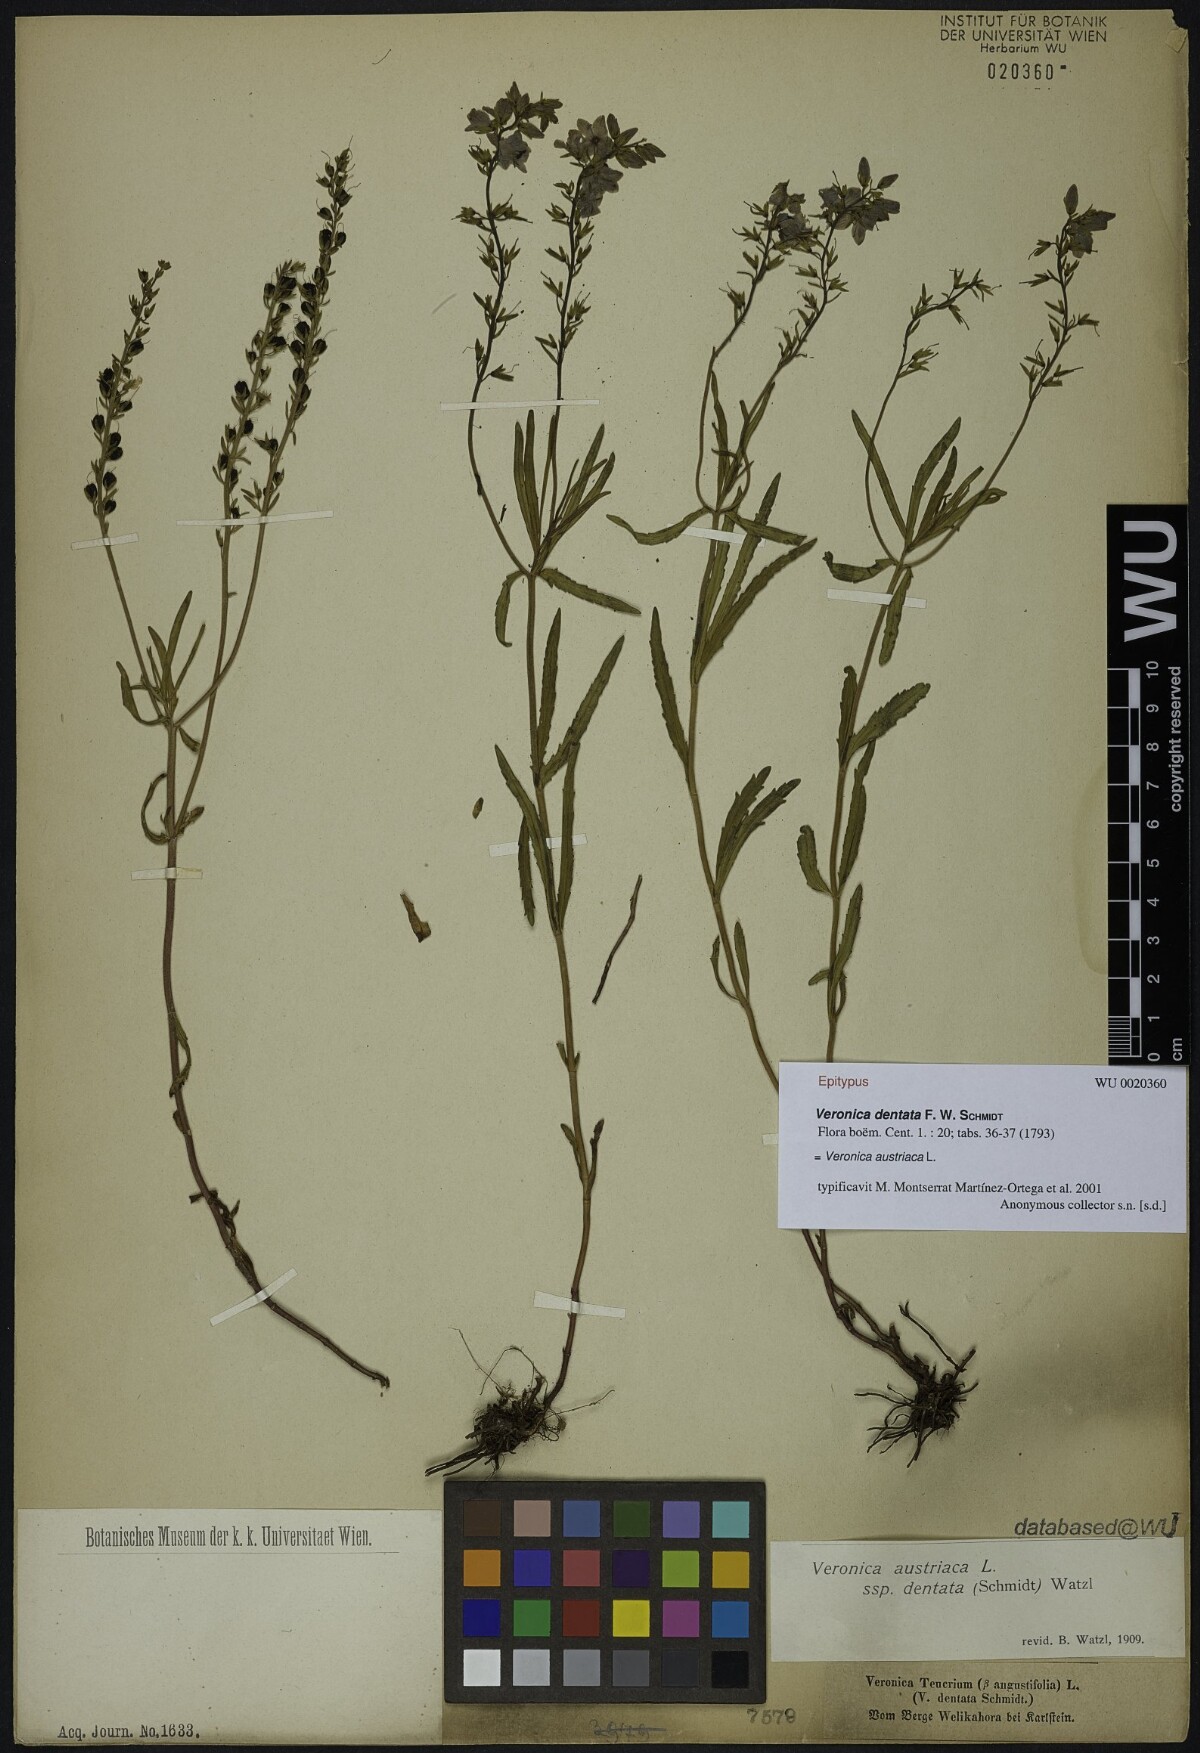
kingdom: Plantae
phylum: Tracheophyta
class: Magnoliopsida
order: Lamiales
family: Plantaginaceae
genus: Veronica
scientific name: Veronica austriaca
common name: Large speedwell
